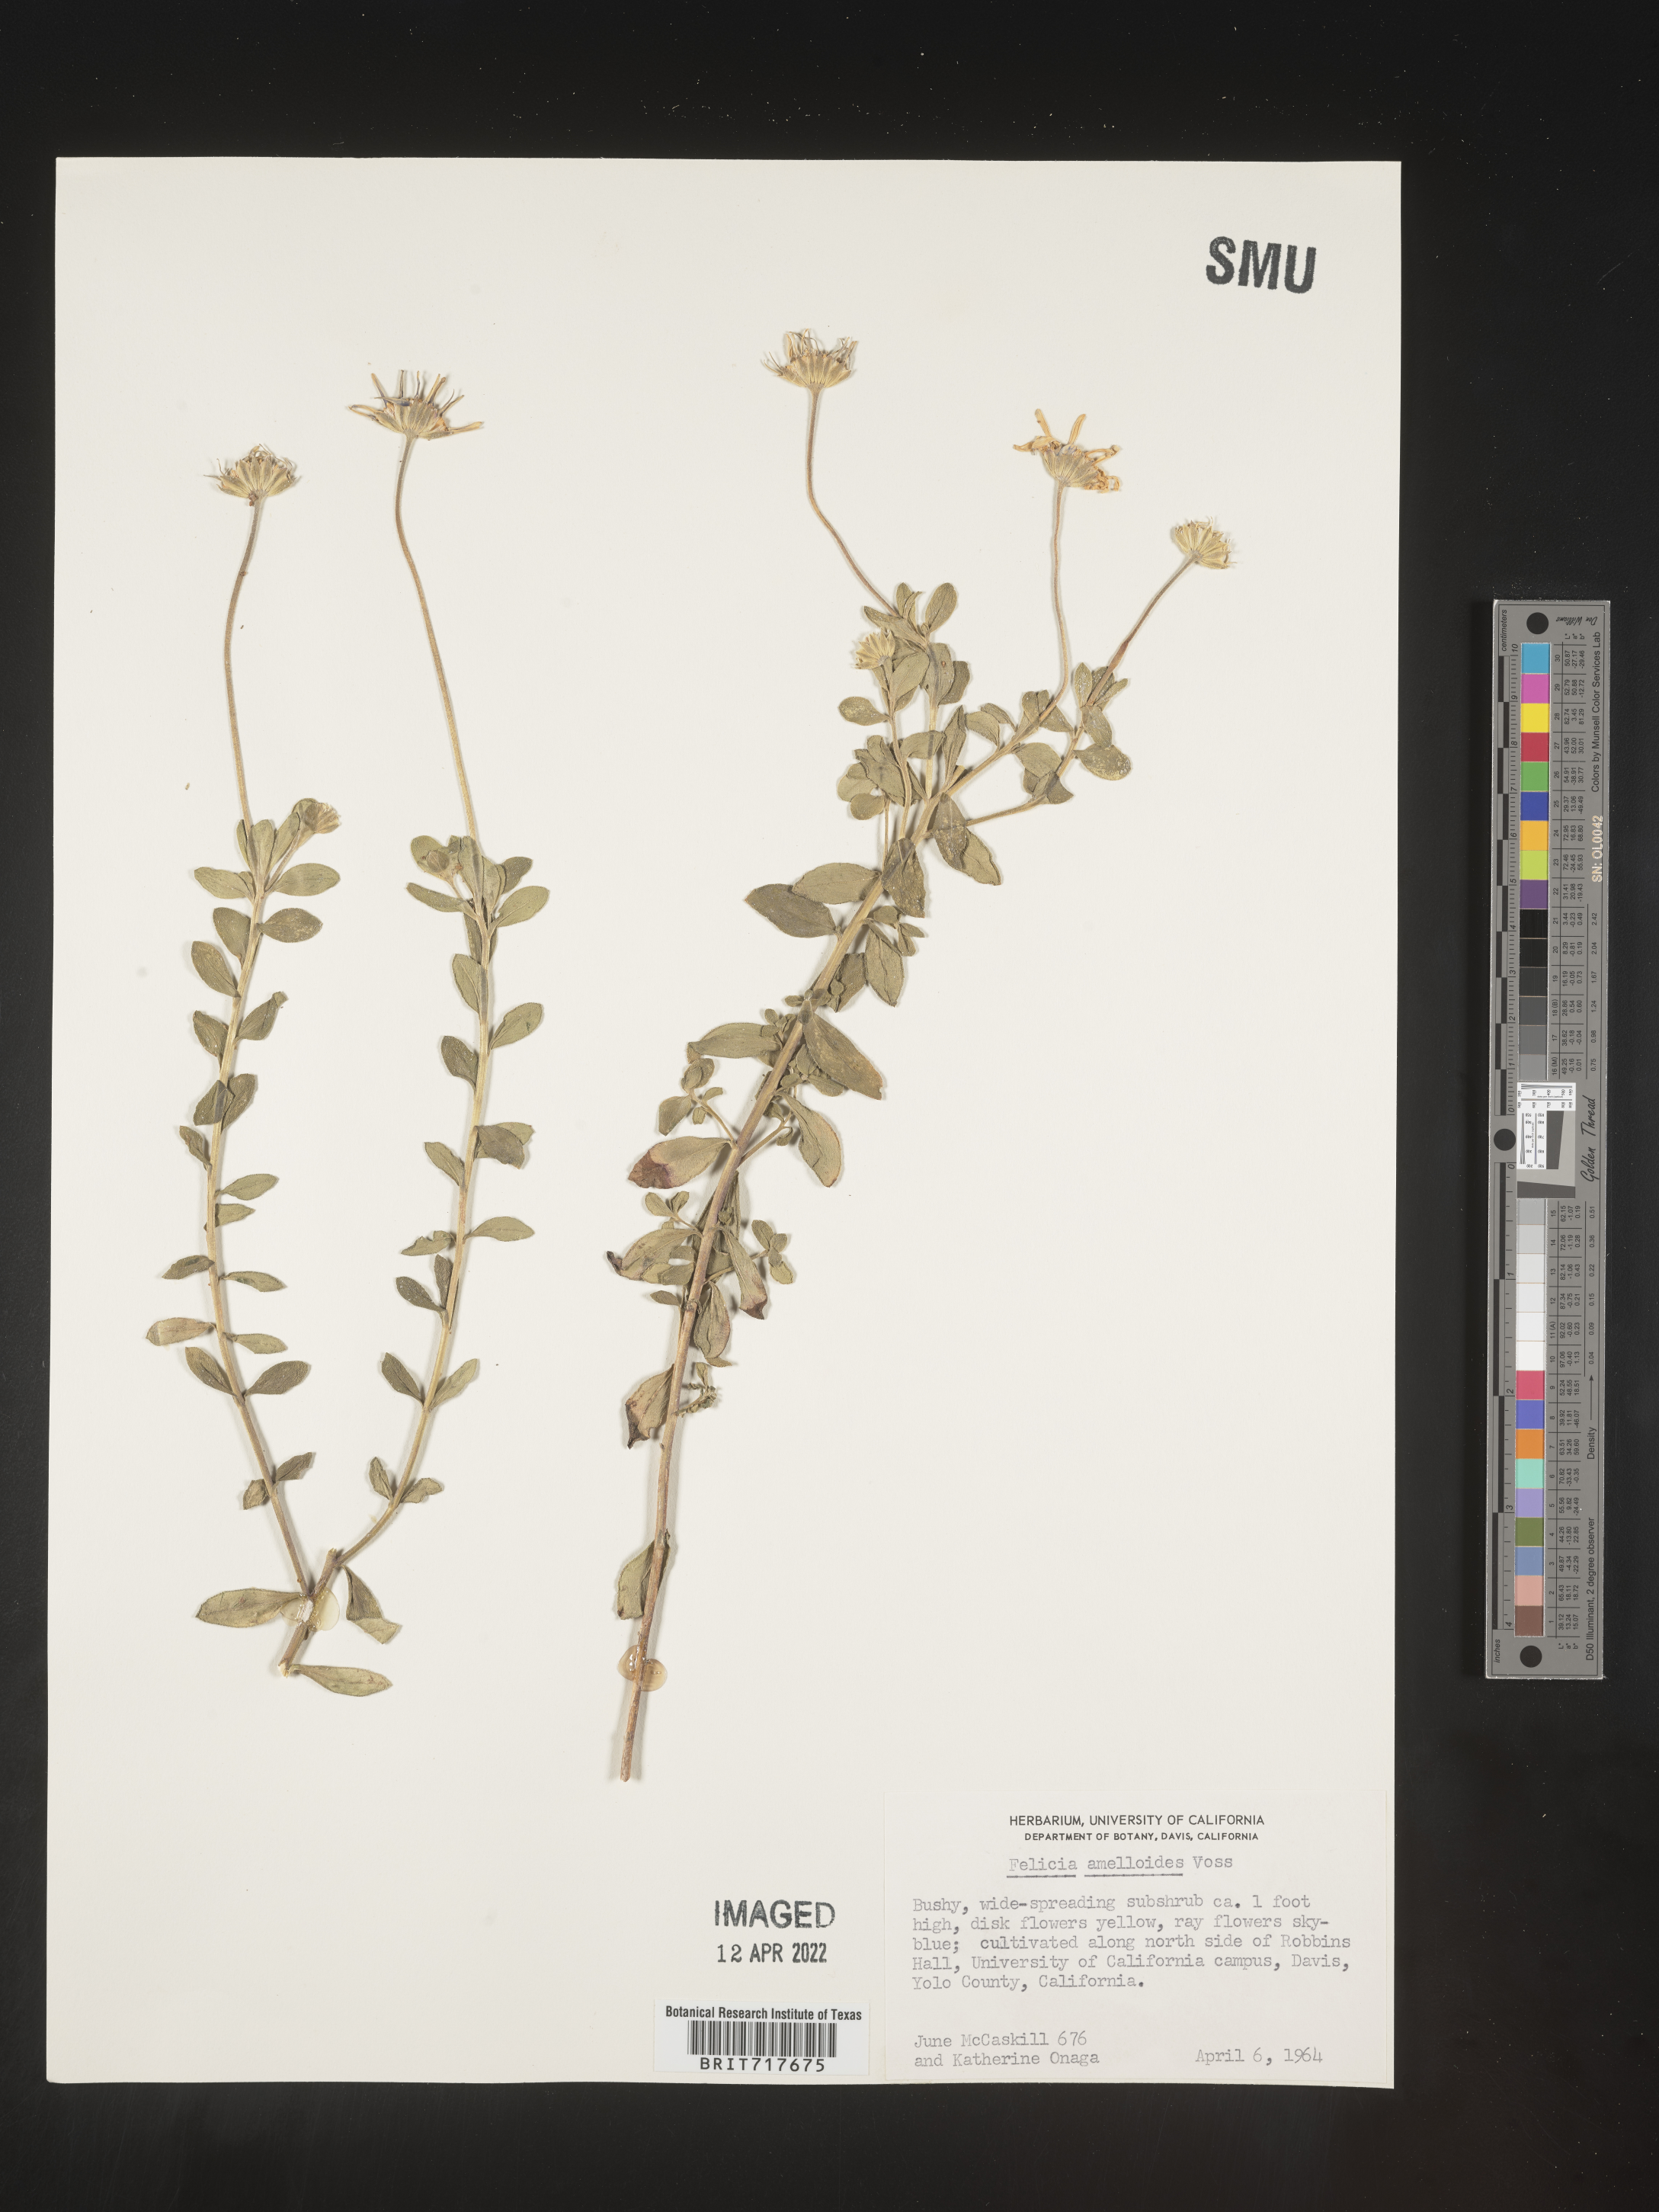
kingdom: Plantae
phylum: Tracheophyta
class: Magnoliopsida
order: Asterales
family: Asteraceae
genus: Felicia
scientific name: Felicia
